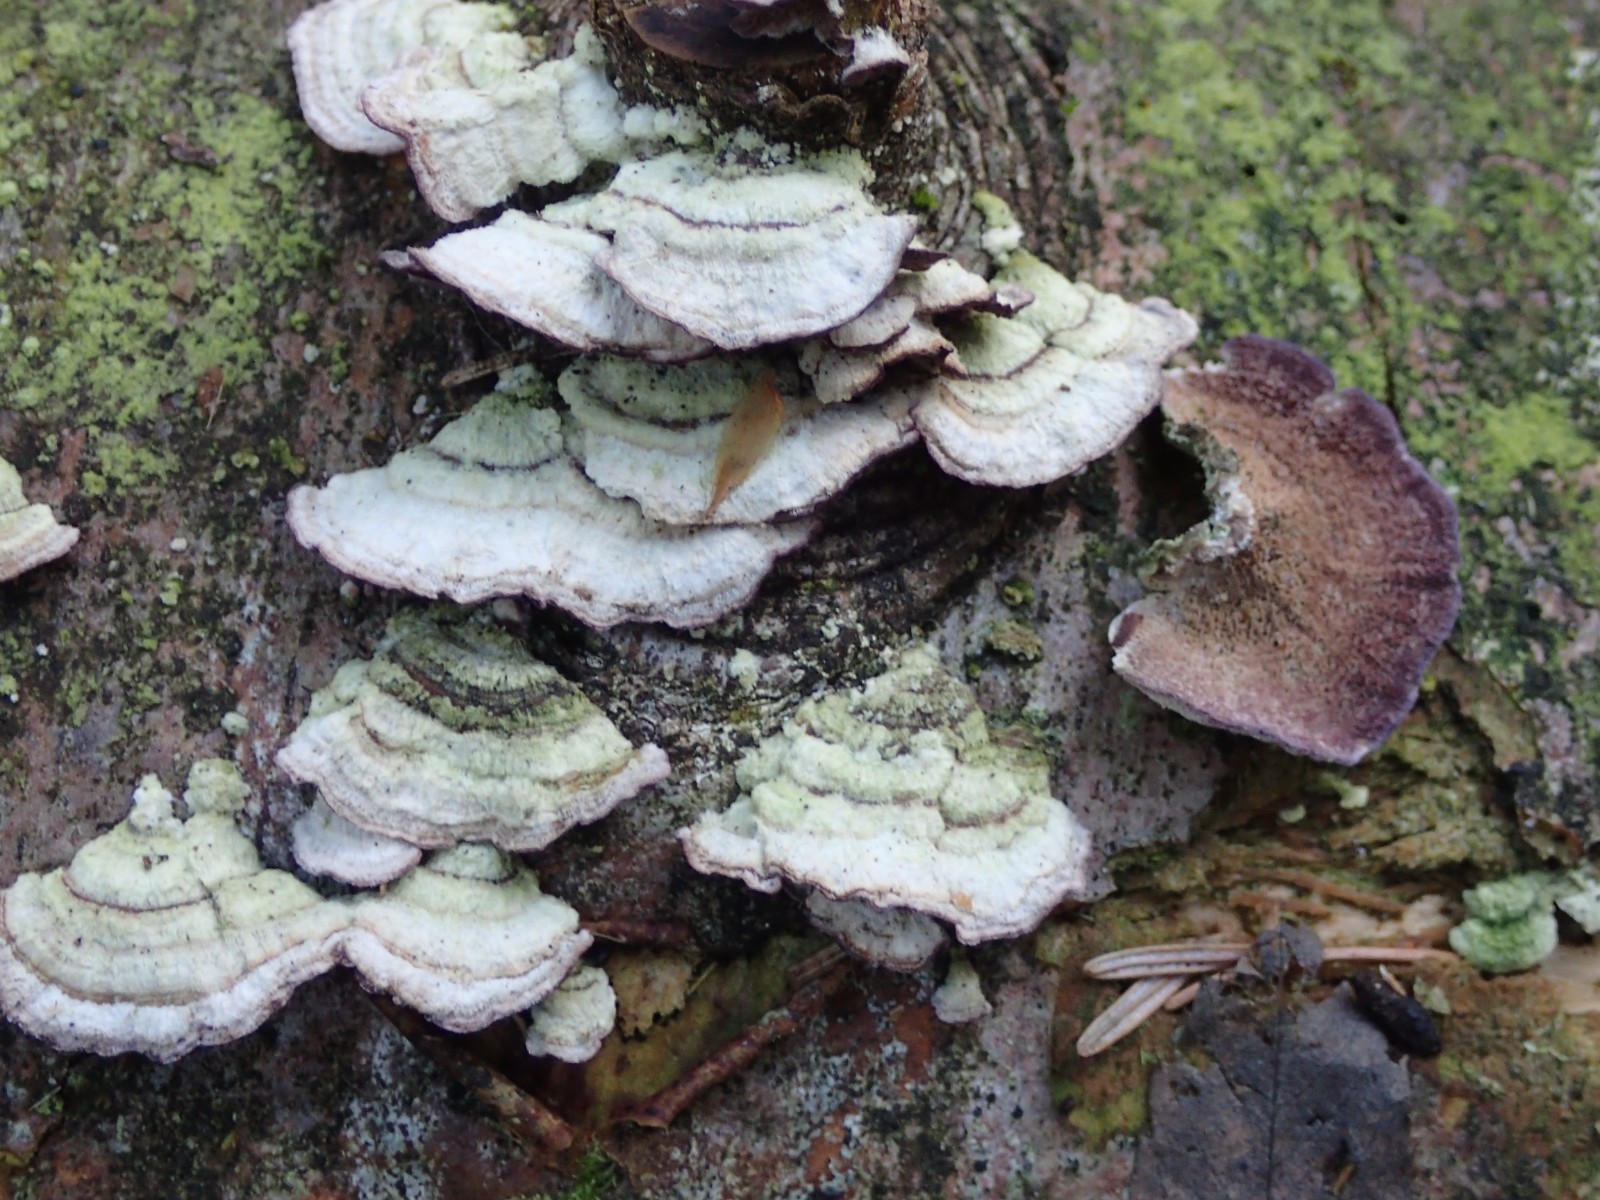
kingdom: Fungi
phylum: Basidiomycota
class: Agaricomycetes
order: Hymenochaetales
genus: Trichaptum
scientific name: Trichaptum abietinum
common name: almindelig violporesvamp
